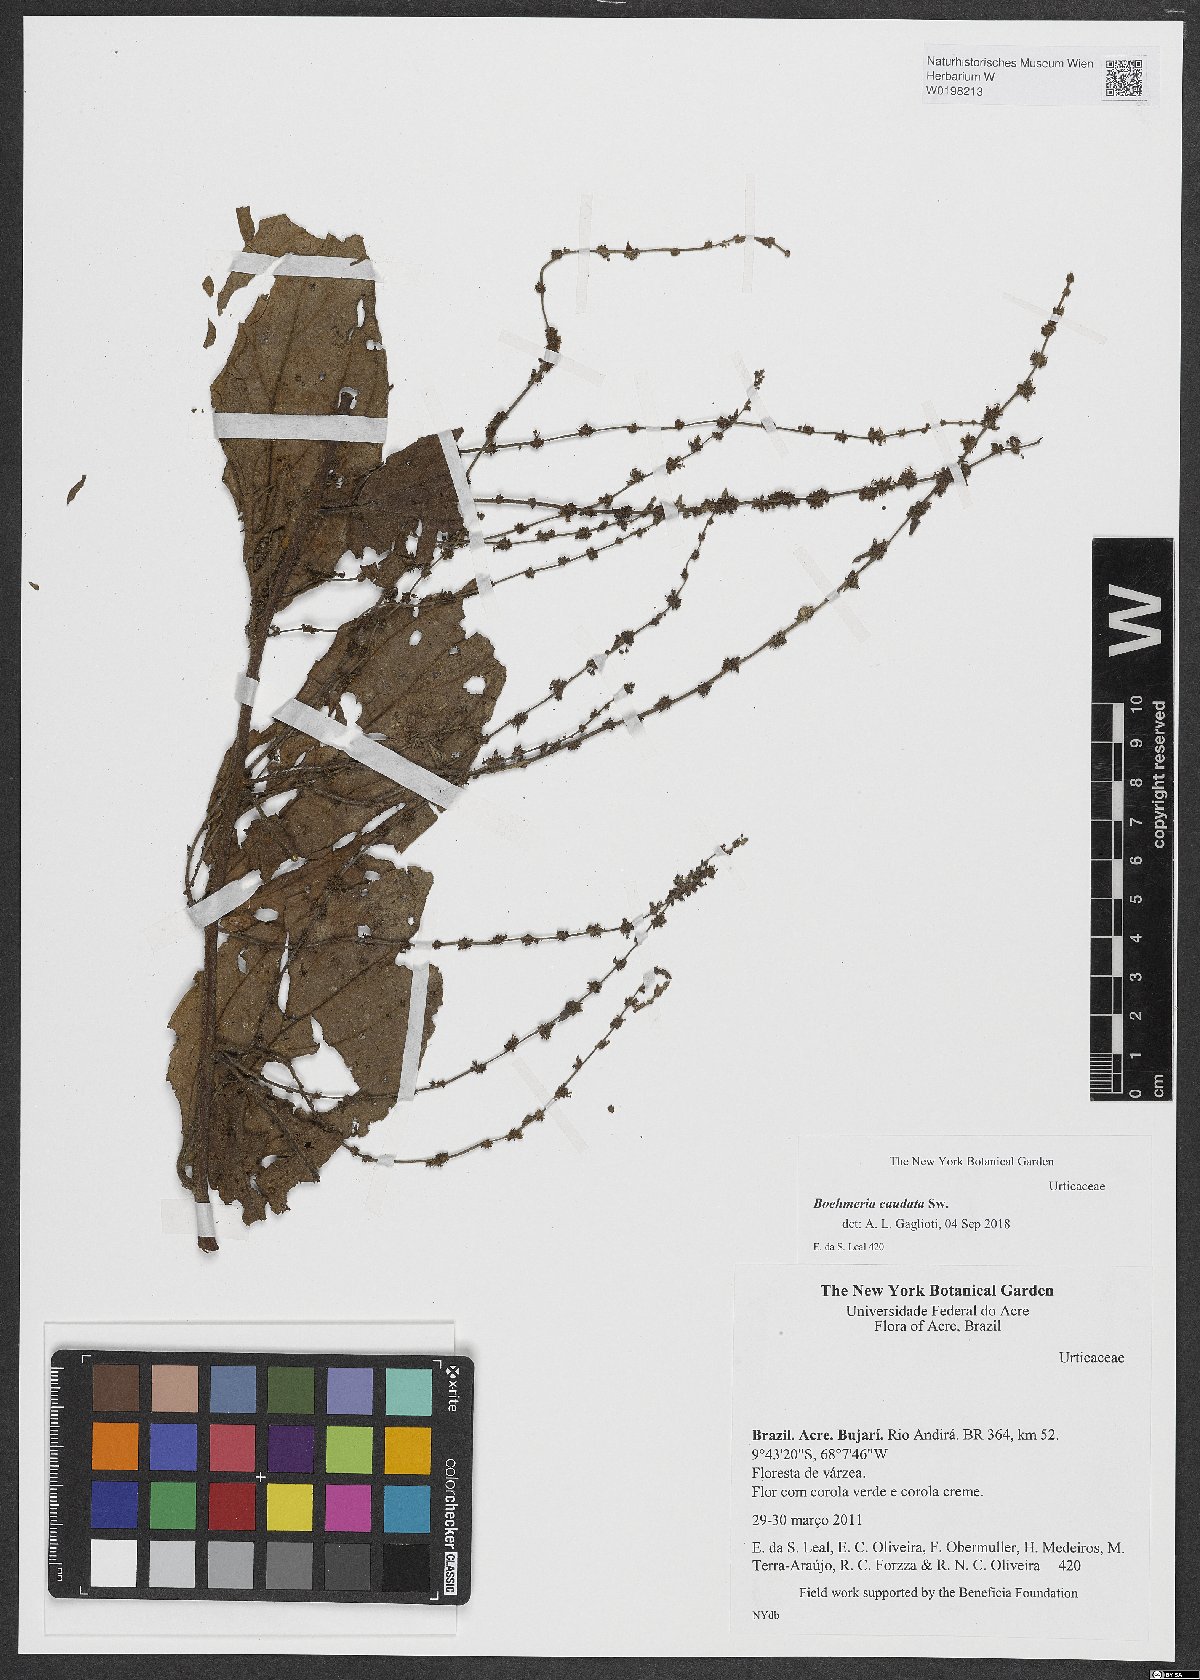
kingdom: Plantae
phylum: Tracheophyta
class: Magnoliopsida
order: Rosales
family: Urticaceae
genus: Boehmeria
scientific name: Boehmeria caudata
